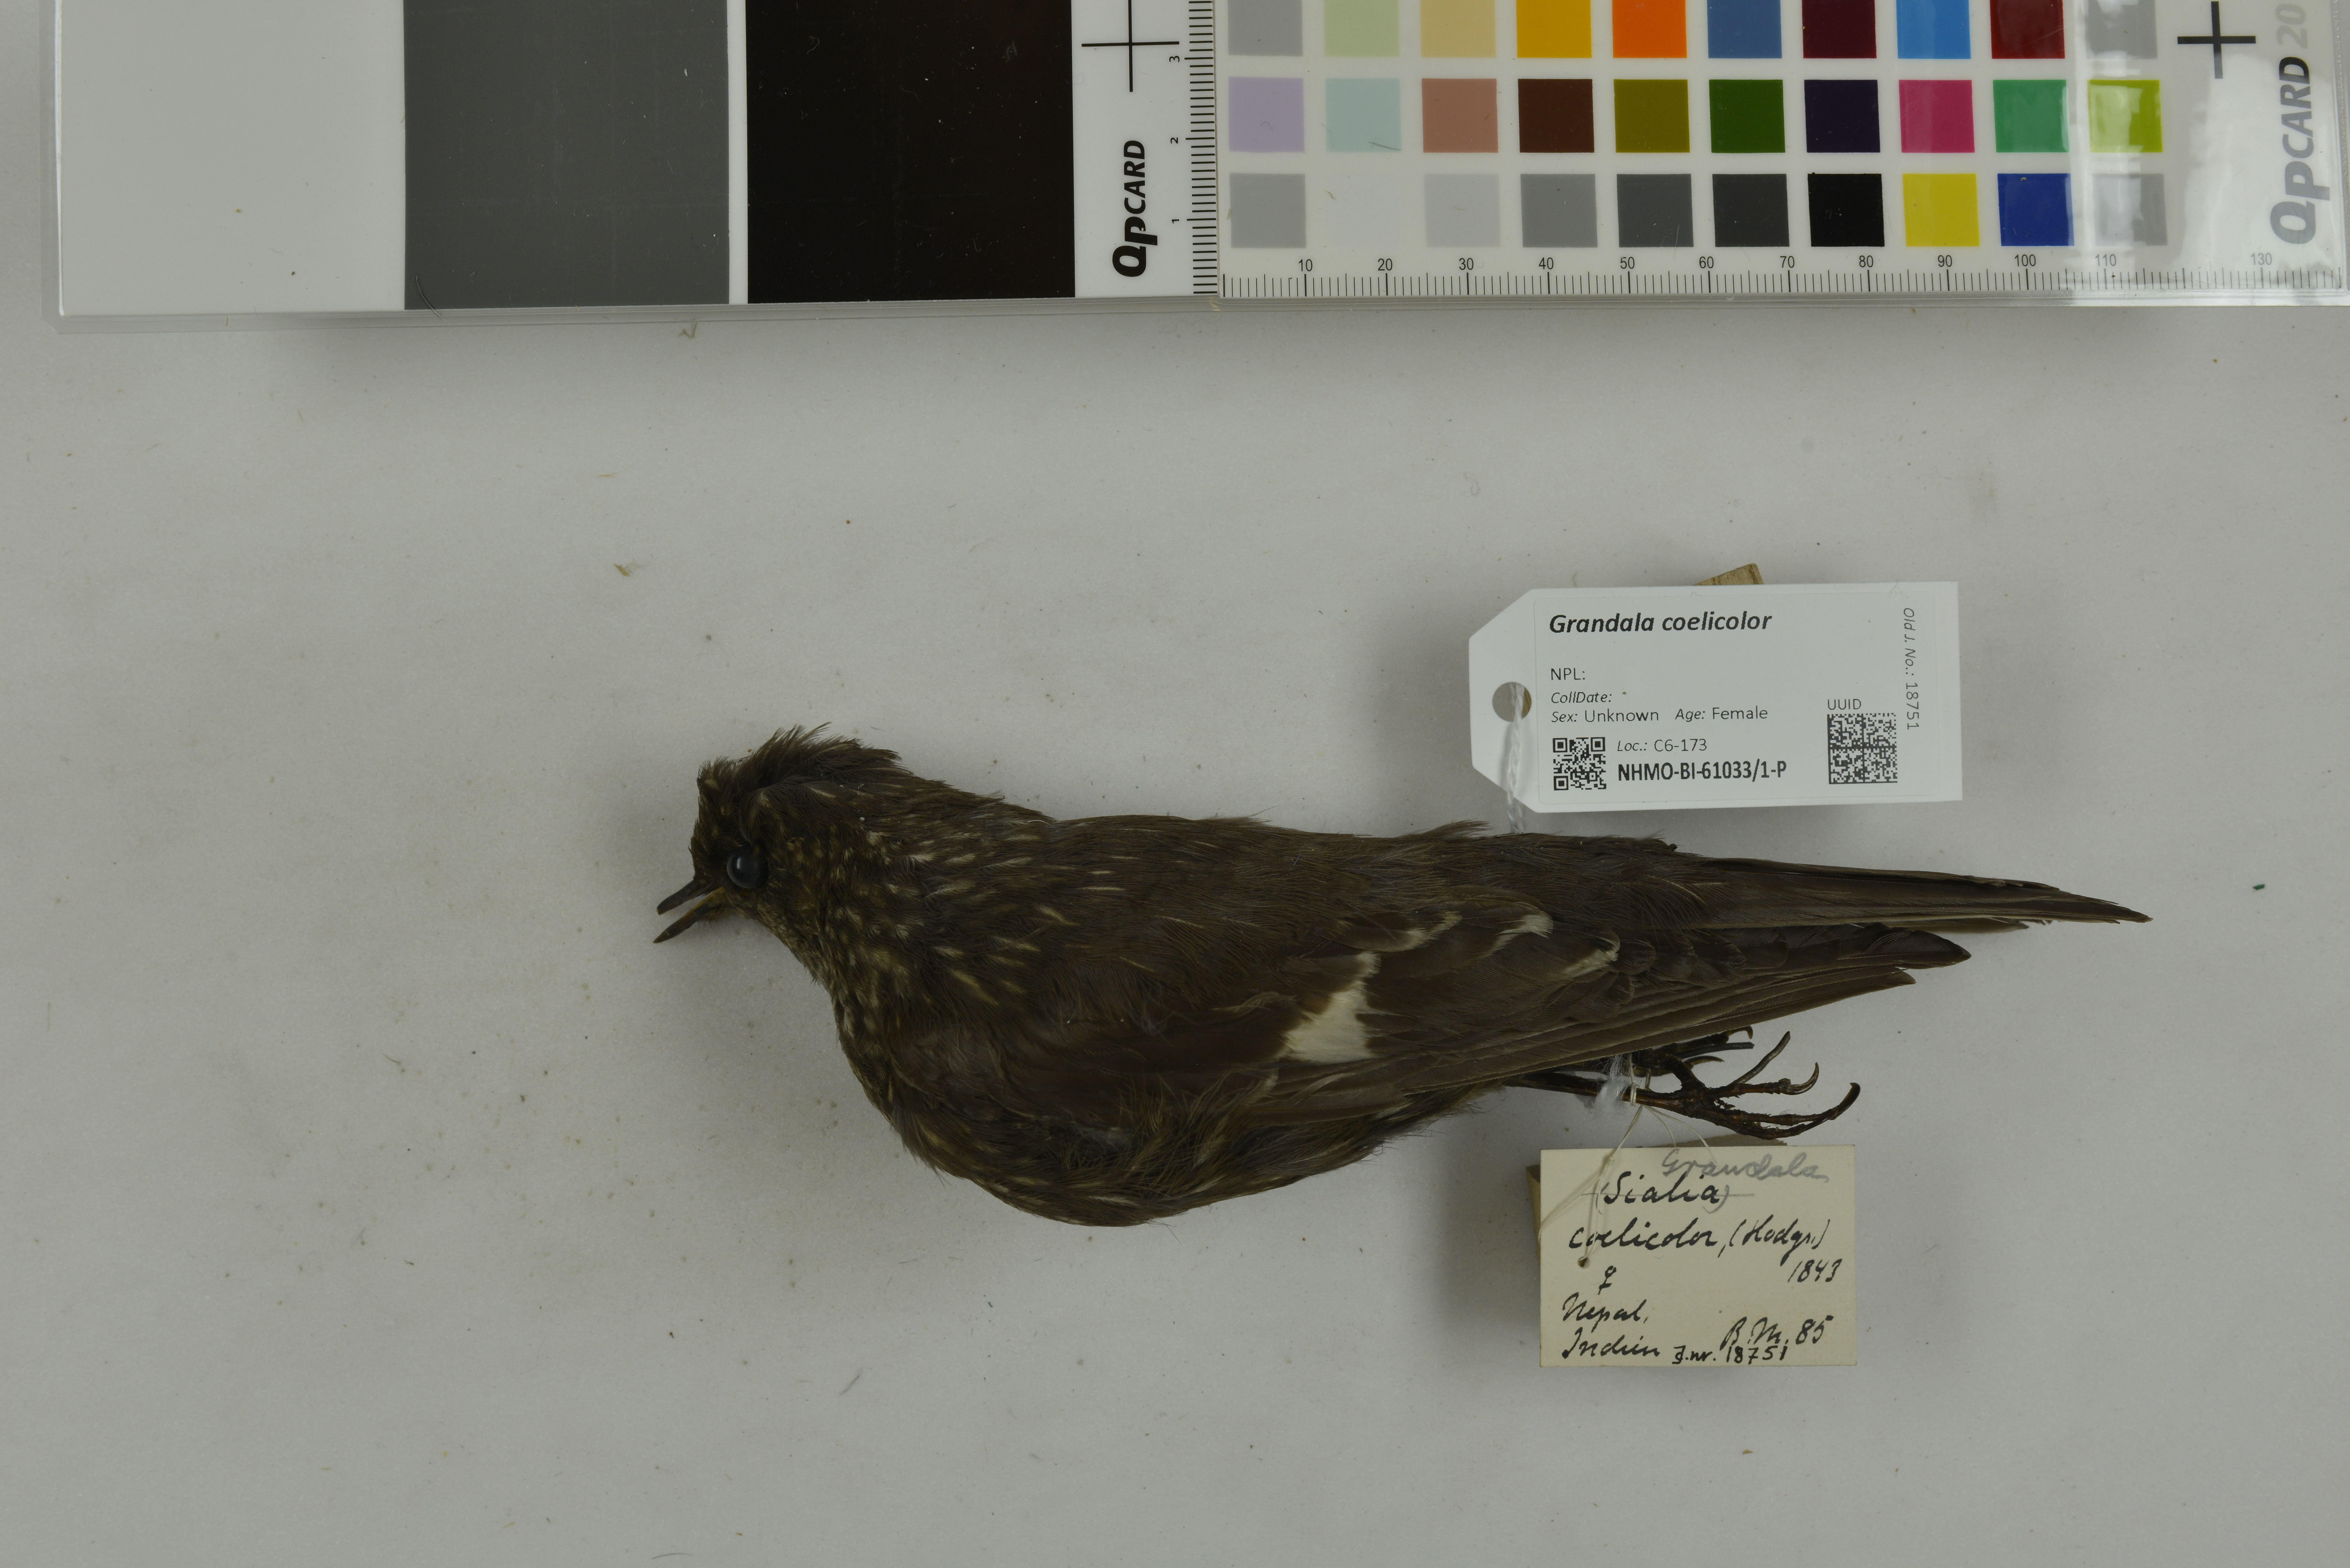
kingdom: Animalia
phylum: Chordata
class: Aves
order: Passeriformes
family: Muscicapidae
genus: Grandala
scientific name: Grandala coelicolor
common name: Grandala
